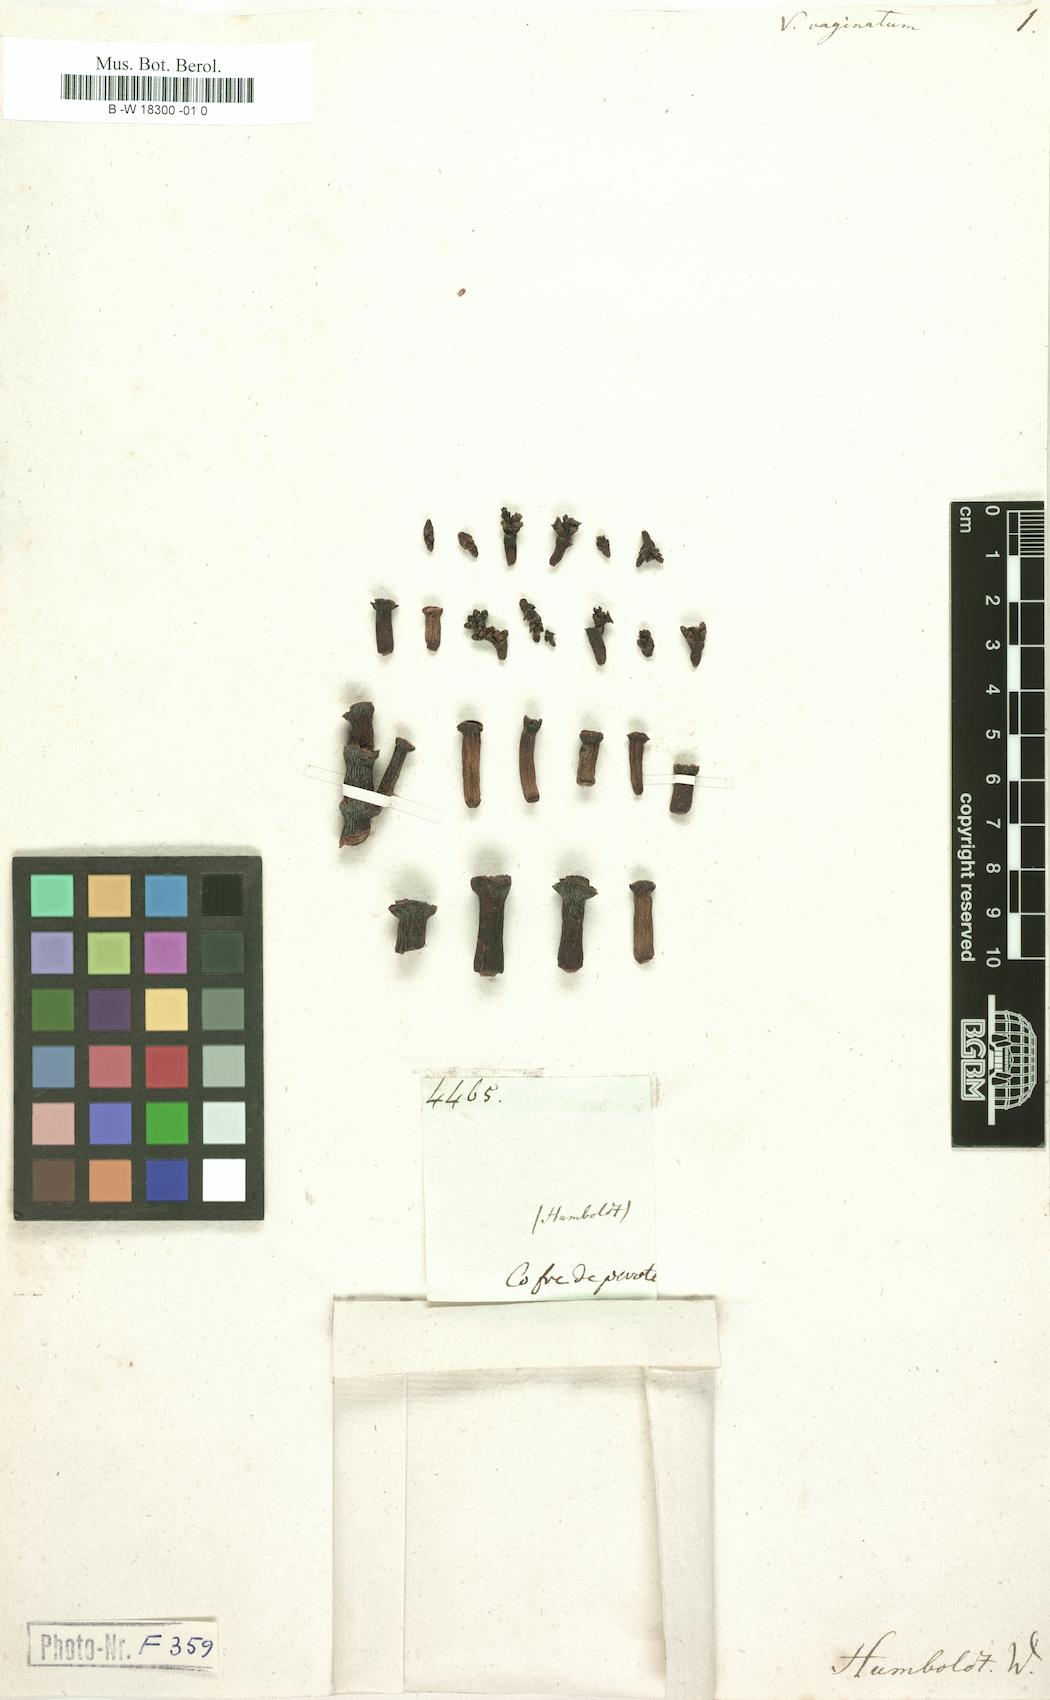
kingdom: Plantae
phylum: Tracheophyta
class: Magnoliopsida
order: Santalales
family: Viscaceae
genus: Arceuthobium
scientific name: Arceuthobium vaginatum
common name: Southwestern dwarf-mistletoe
